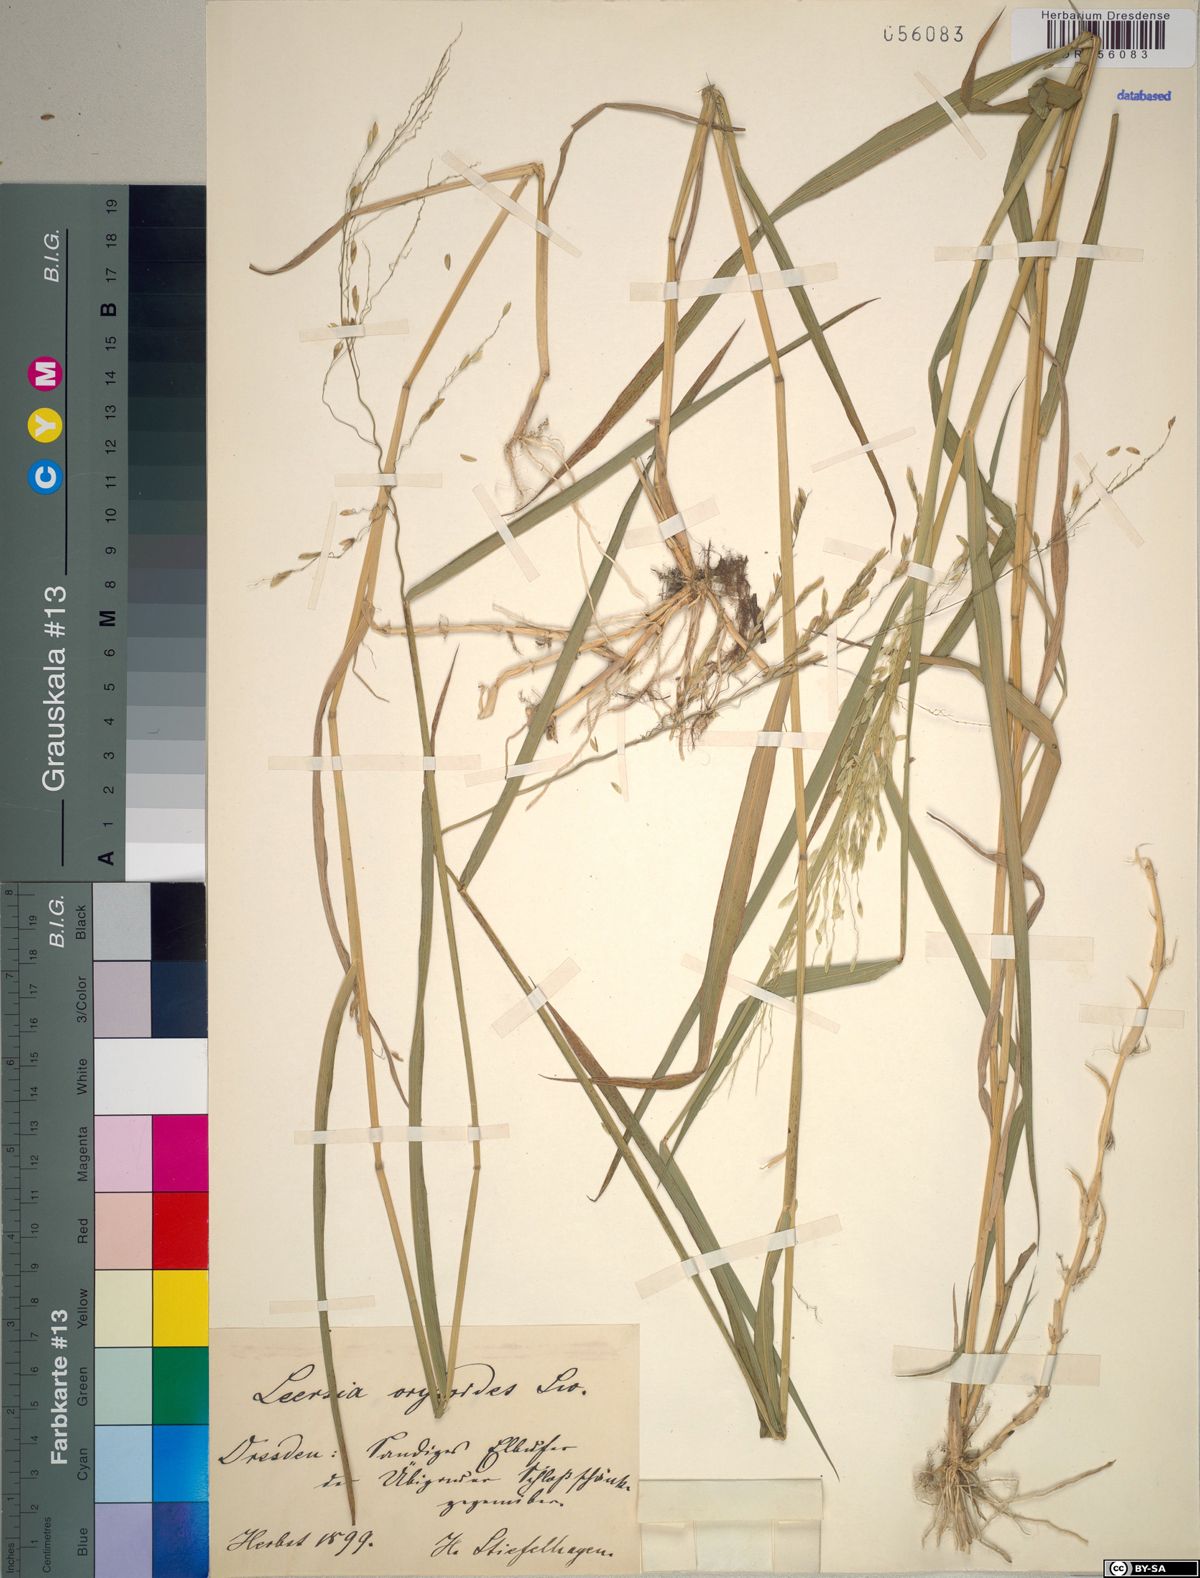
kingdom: Plantae
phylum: Tracheophyta
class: Liliopsida
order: Poales
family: Poaceae
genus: Leersia
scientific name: Leersia oryzoides
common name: Cut-grass
